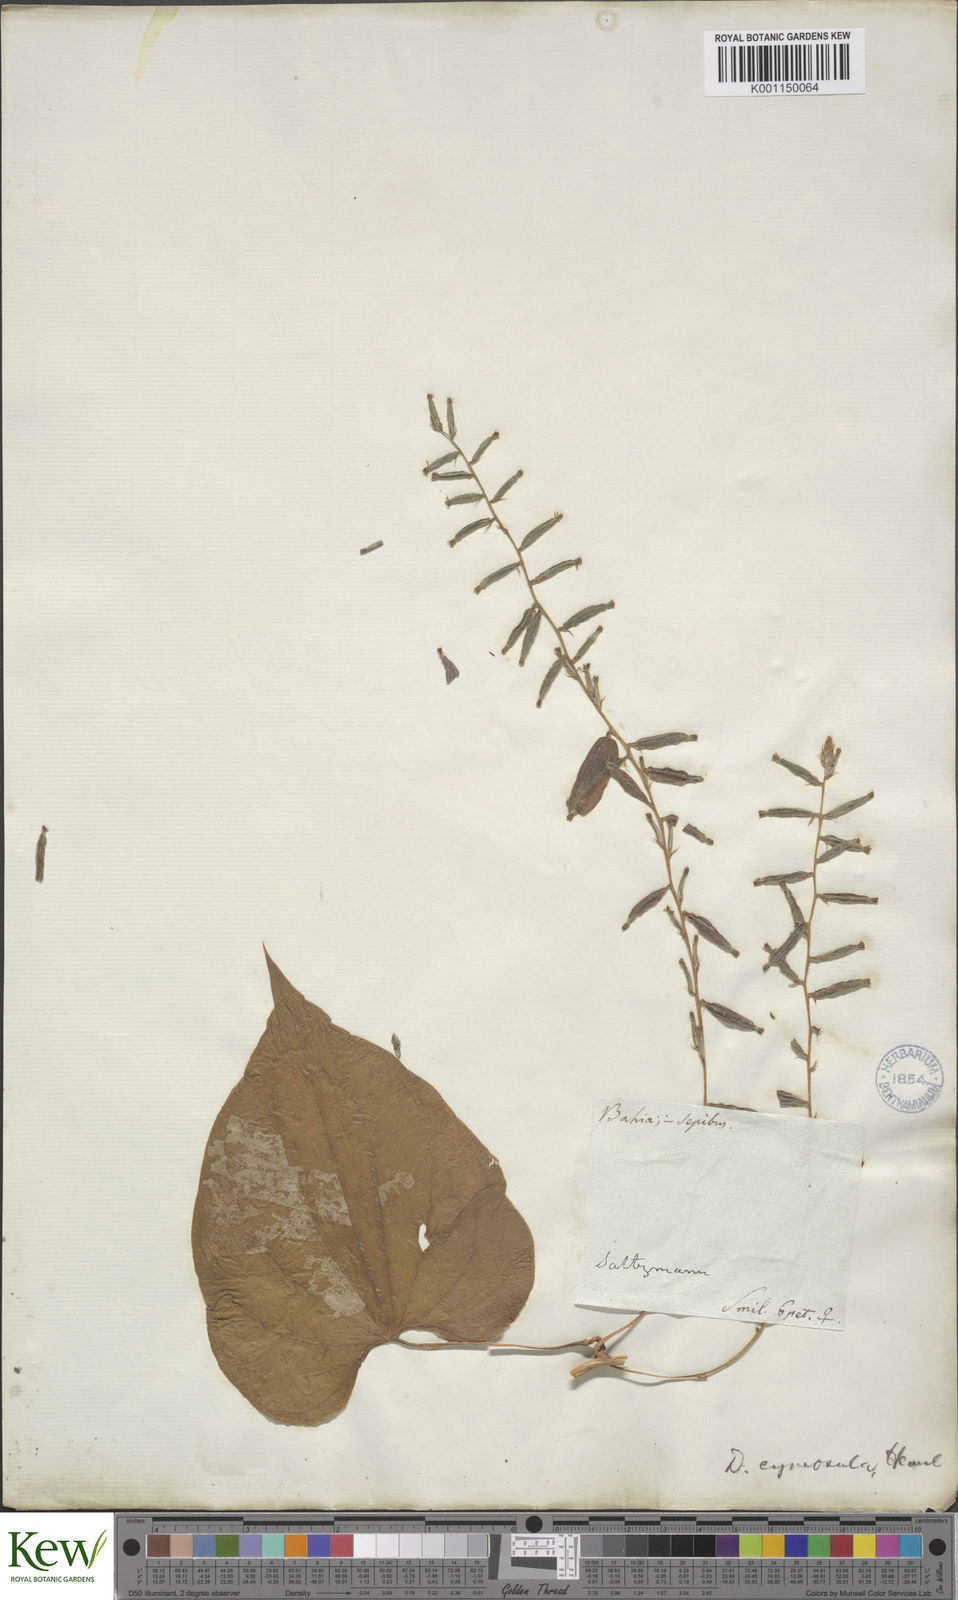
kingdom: Plantae
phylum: Tracheophyta
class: Liliopsida
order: Dioscoreales
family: Dioscoreaceae
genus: Dioscorea
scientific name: Dioscorea stegelmanniana
